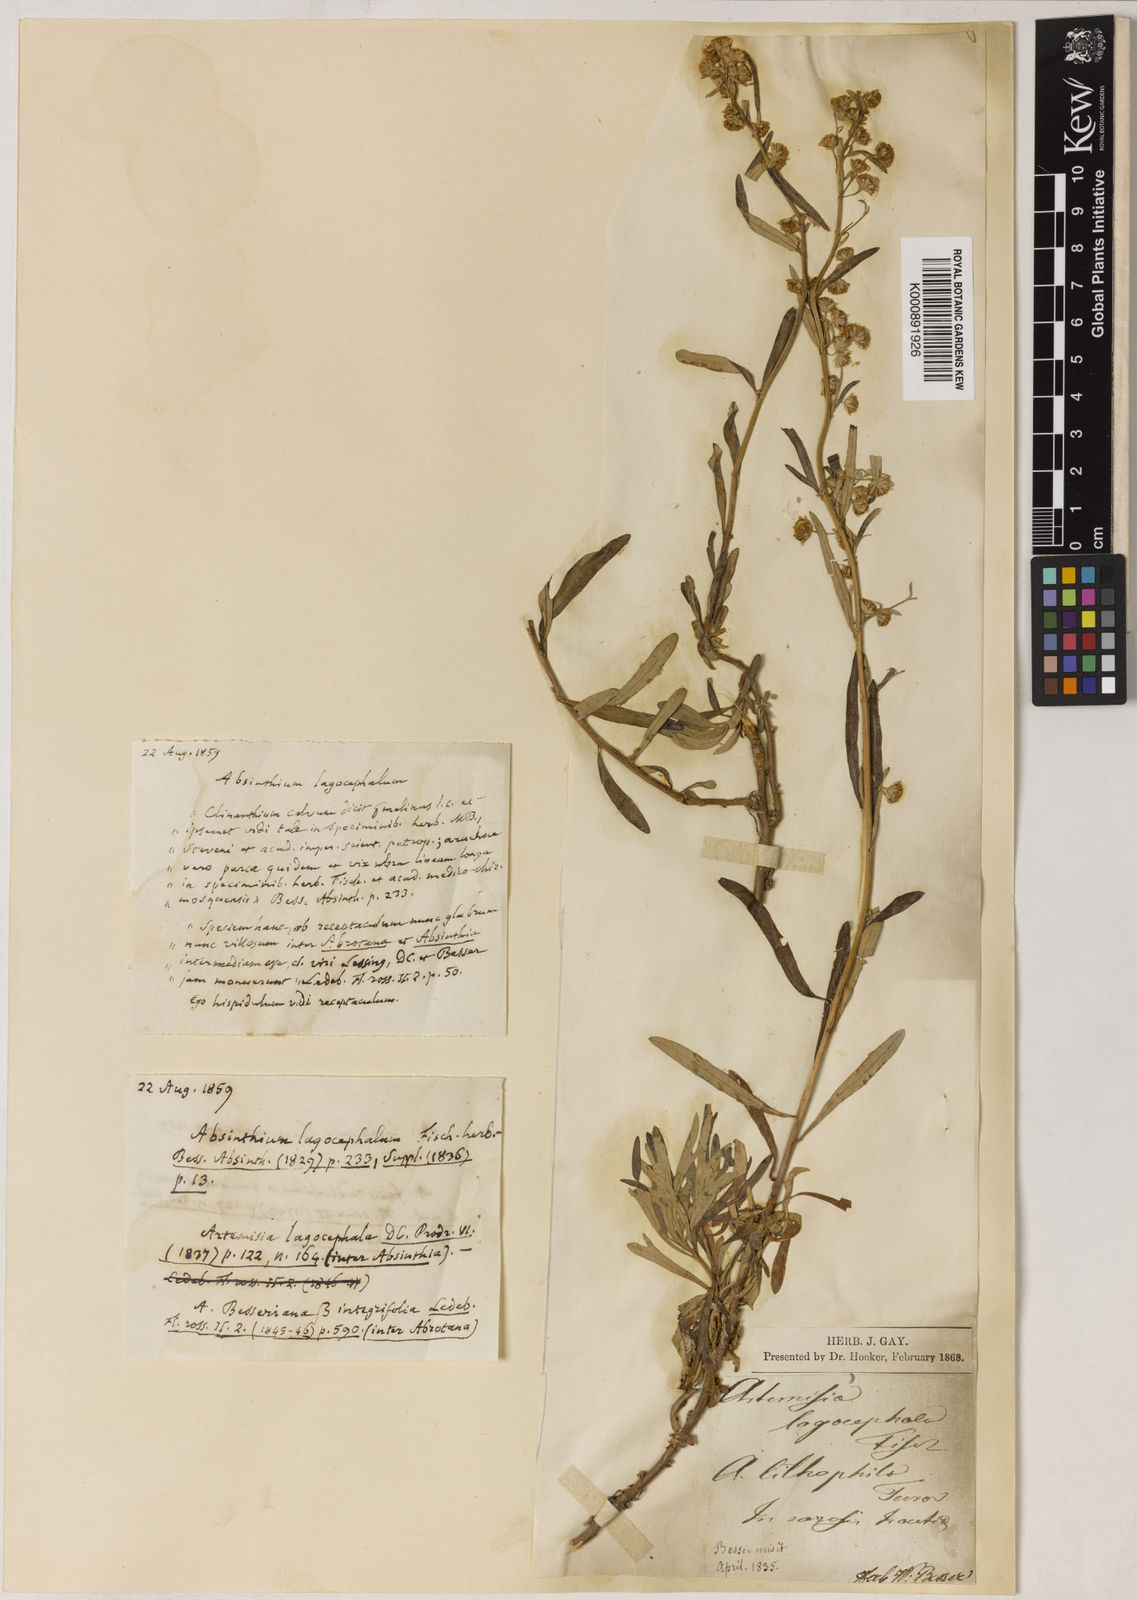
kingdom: Plantae
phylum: Tracheophyta
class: Magnoliopsida
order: Asterales
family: Asteraceae
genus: Artemisia
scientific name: Artemisia lagocephala
